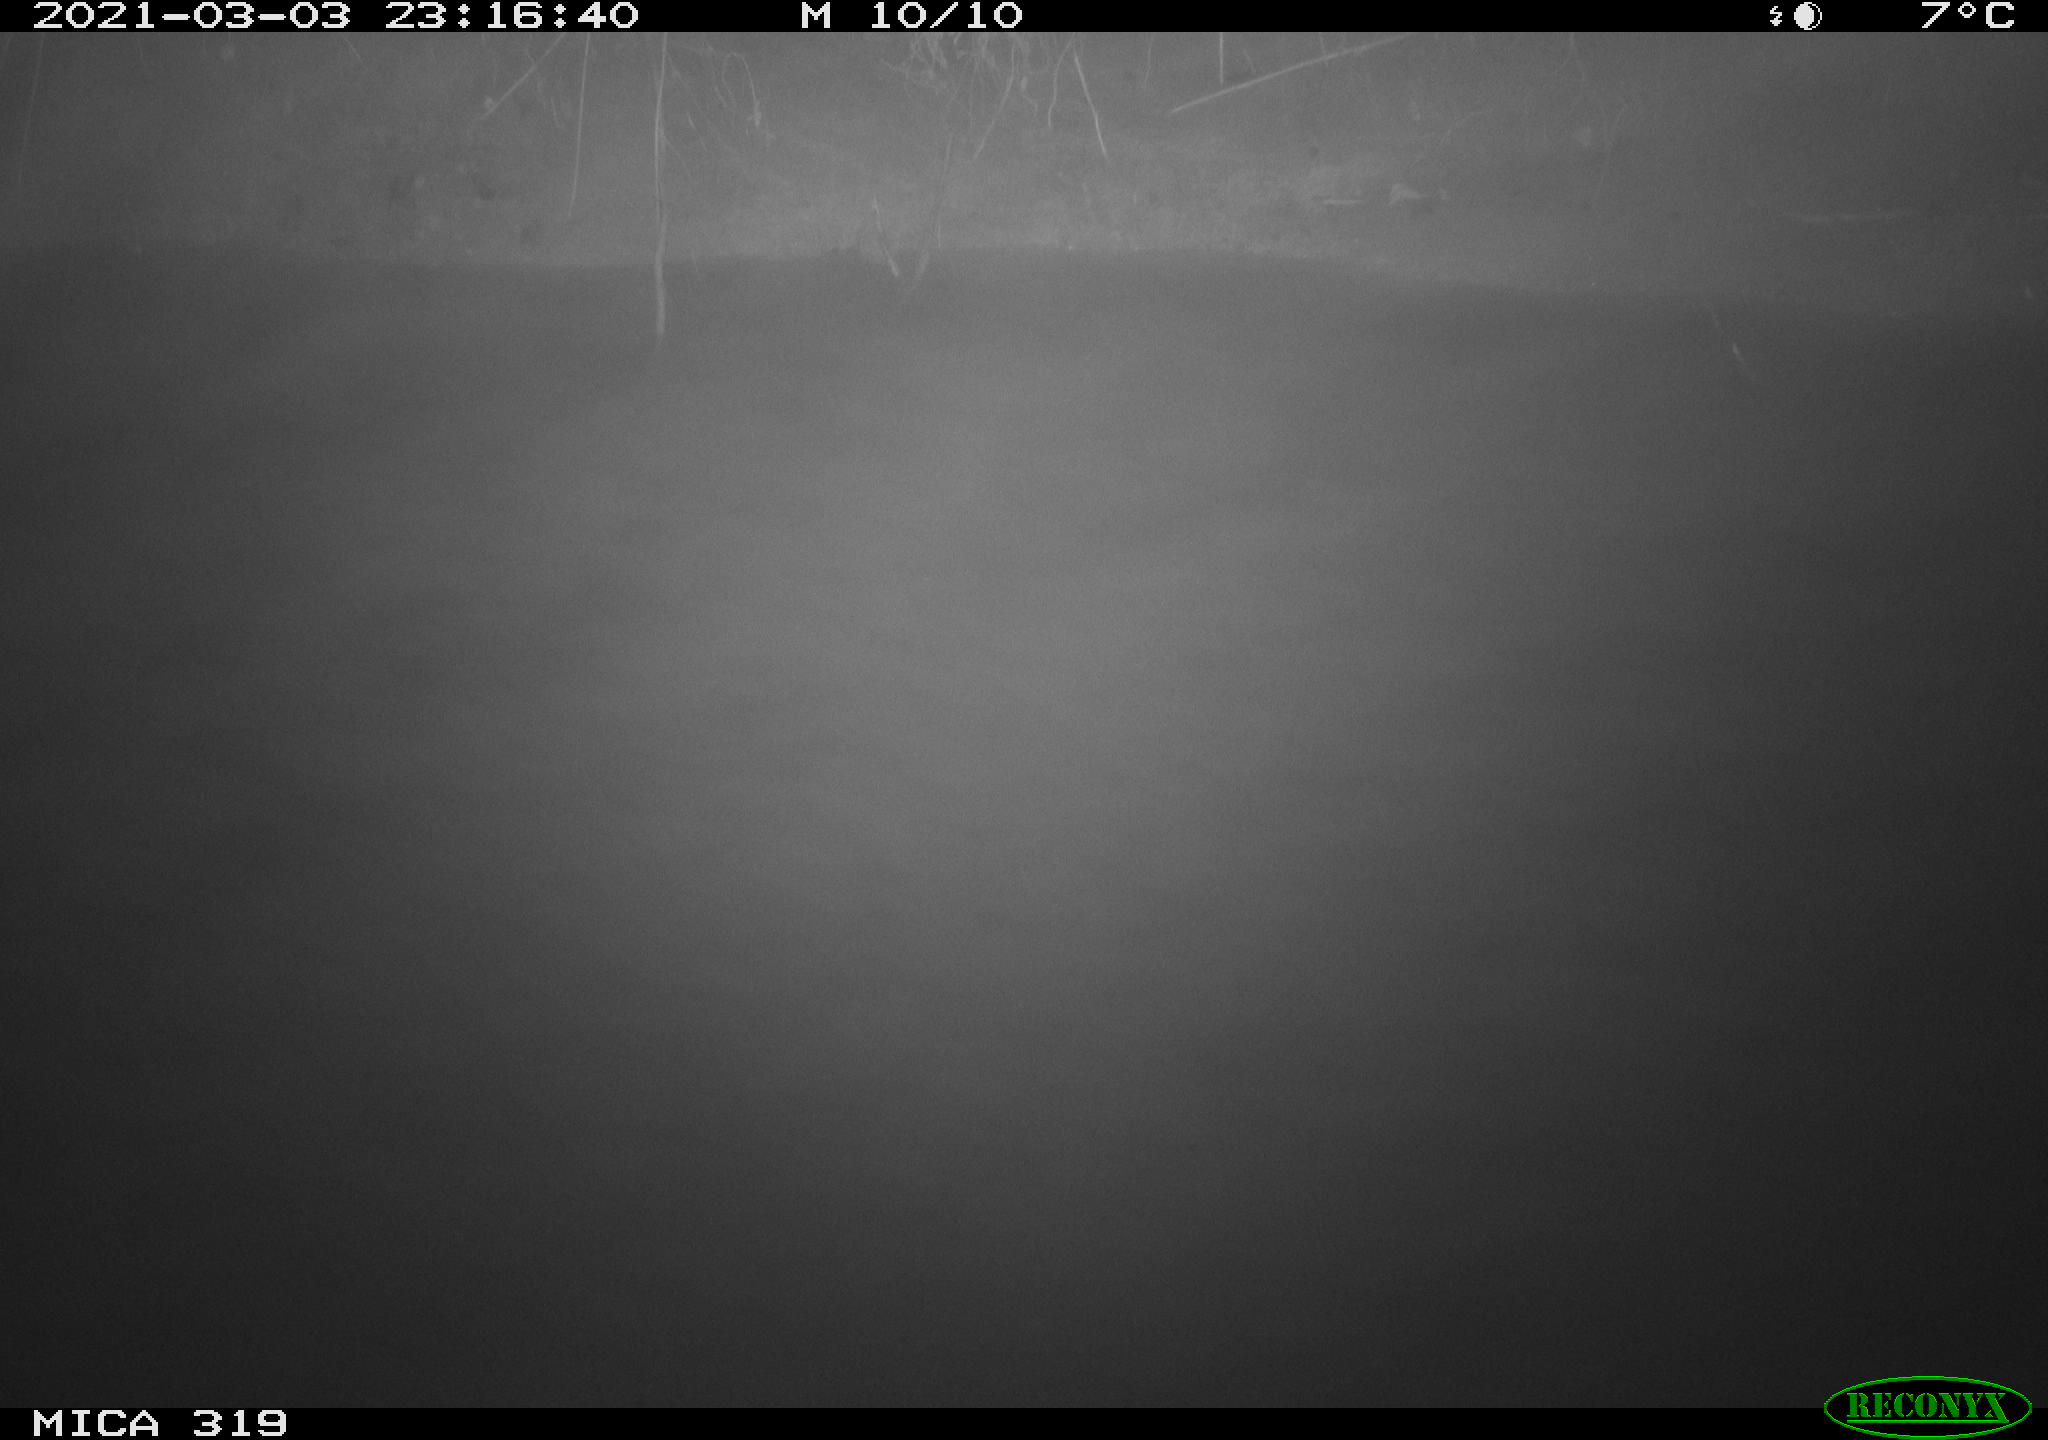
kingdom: Animalia
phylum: Chordata
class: Aves
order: Anseriformes
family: Anatidae
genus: Anas
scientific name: Anas platyrhynchos
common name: Mallard
